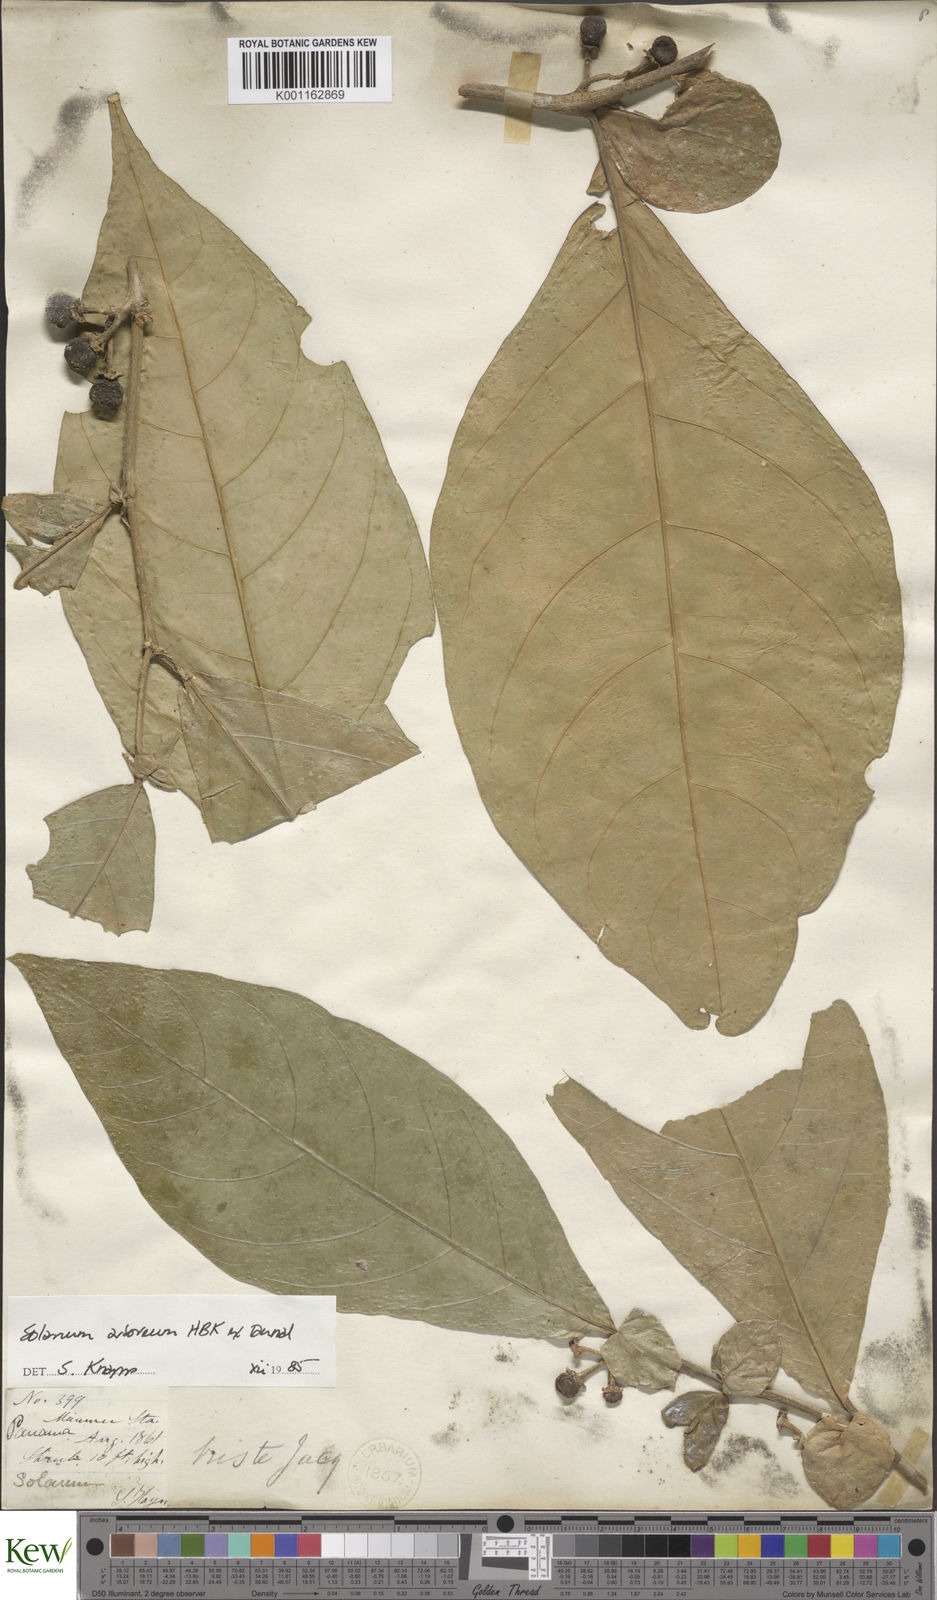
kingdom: Plantae
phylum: Tracheophyta
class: Magnoliopsida
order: Solanales
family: Solanaceae
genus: Solanum
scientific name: Solanum arboreum
